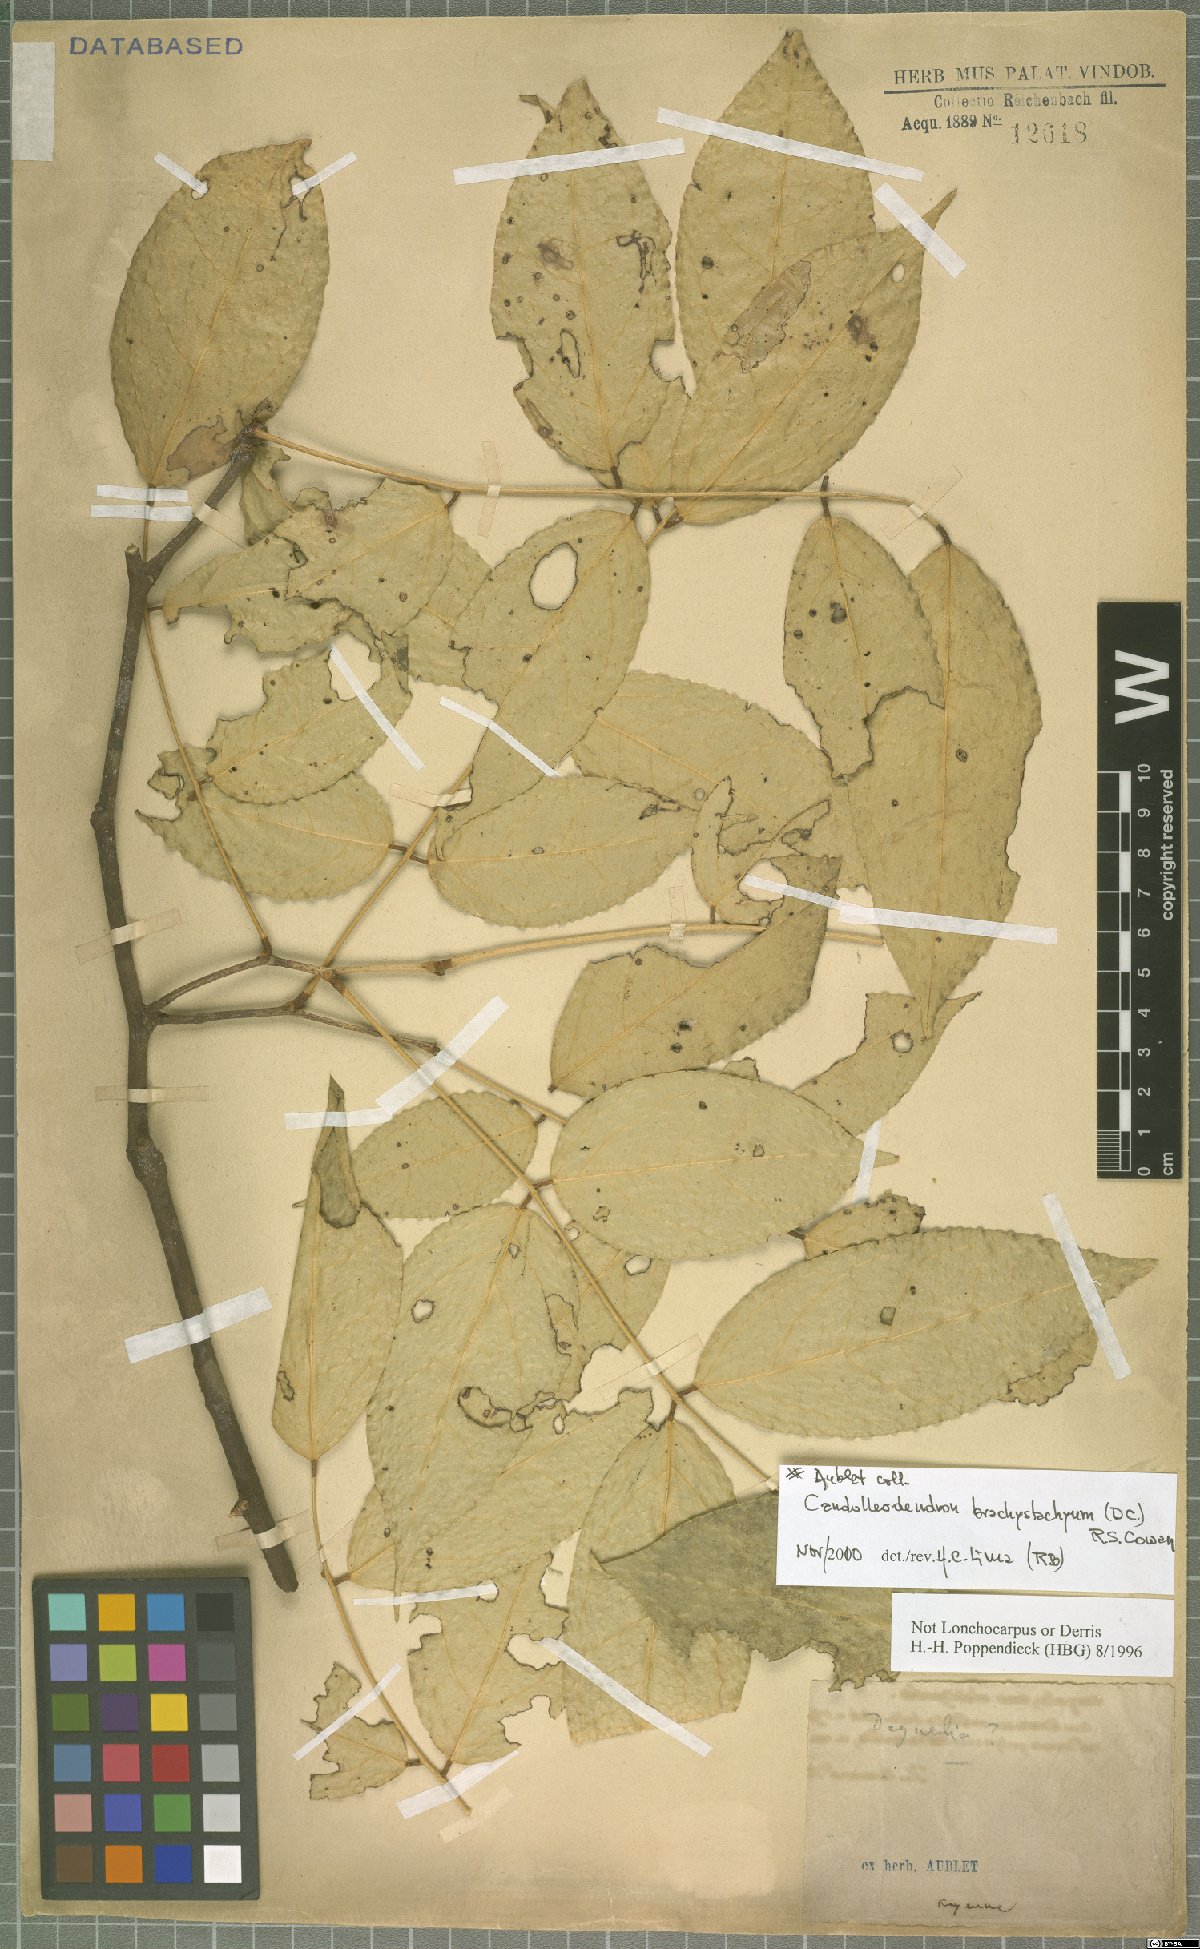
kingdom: Plantae
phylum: Tracheophyta
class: Magnoliopsida
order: Fabales
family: Fabaceae
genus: Candolleodendron
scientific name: Candolleodendron brachystachyum
